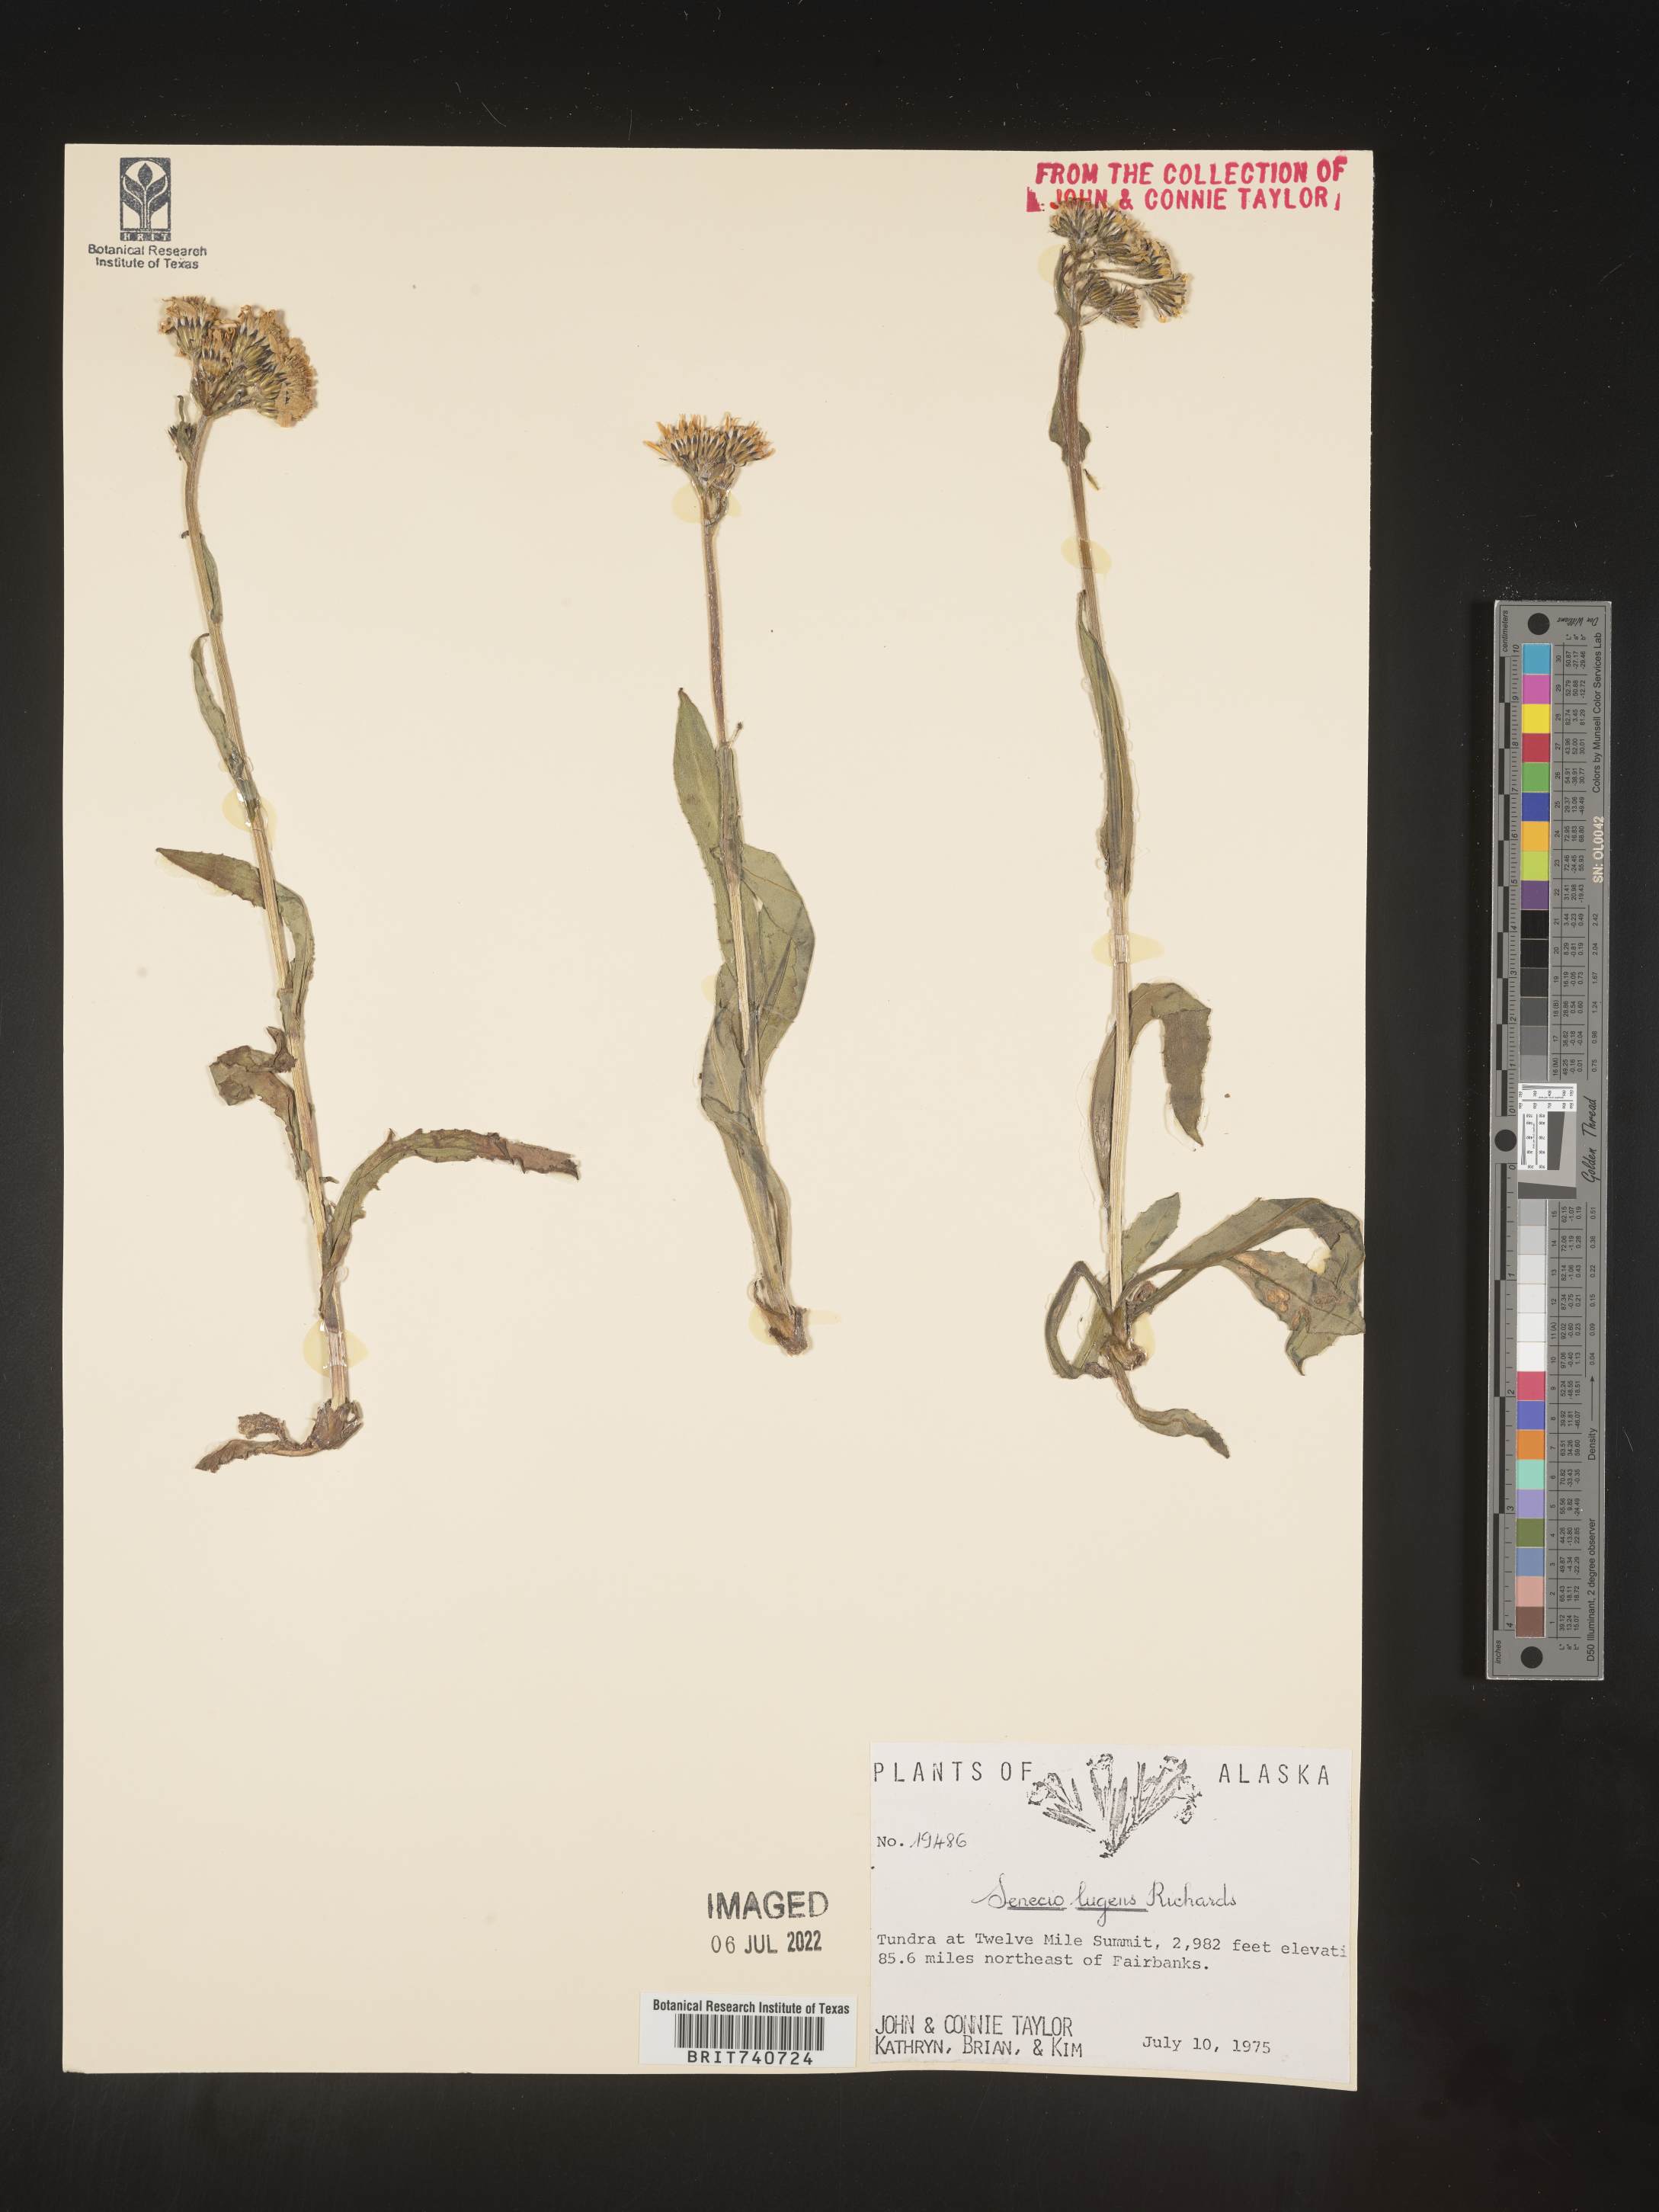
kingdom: Plantae
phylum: Tracheophyta
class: Magnoliopsida
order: Asterales
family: Asteraceae
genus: Senecio
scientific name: Senecio lugens
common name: Black-tip groundsel
